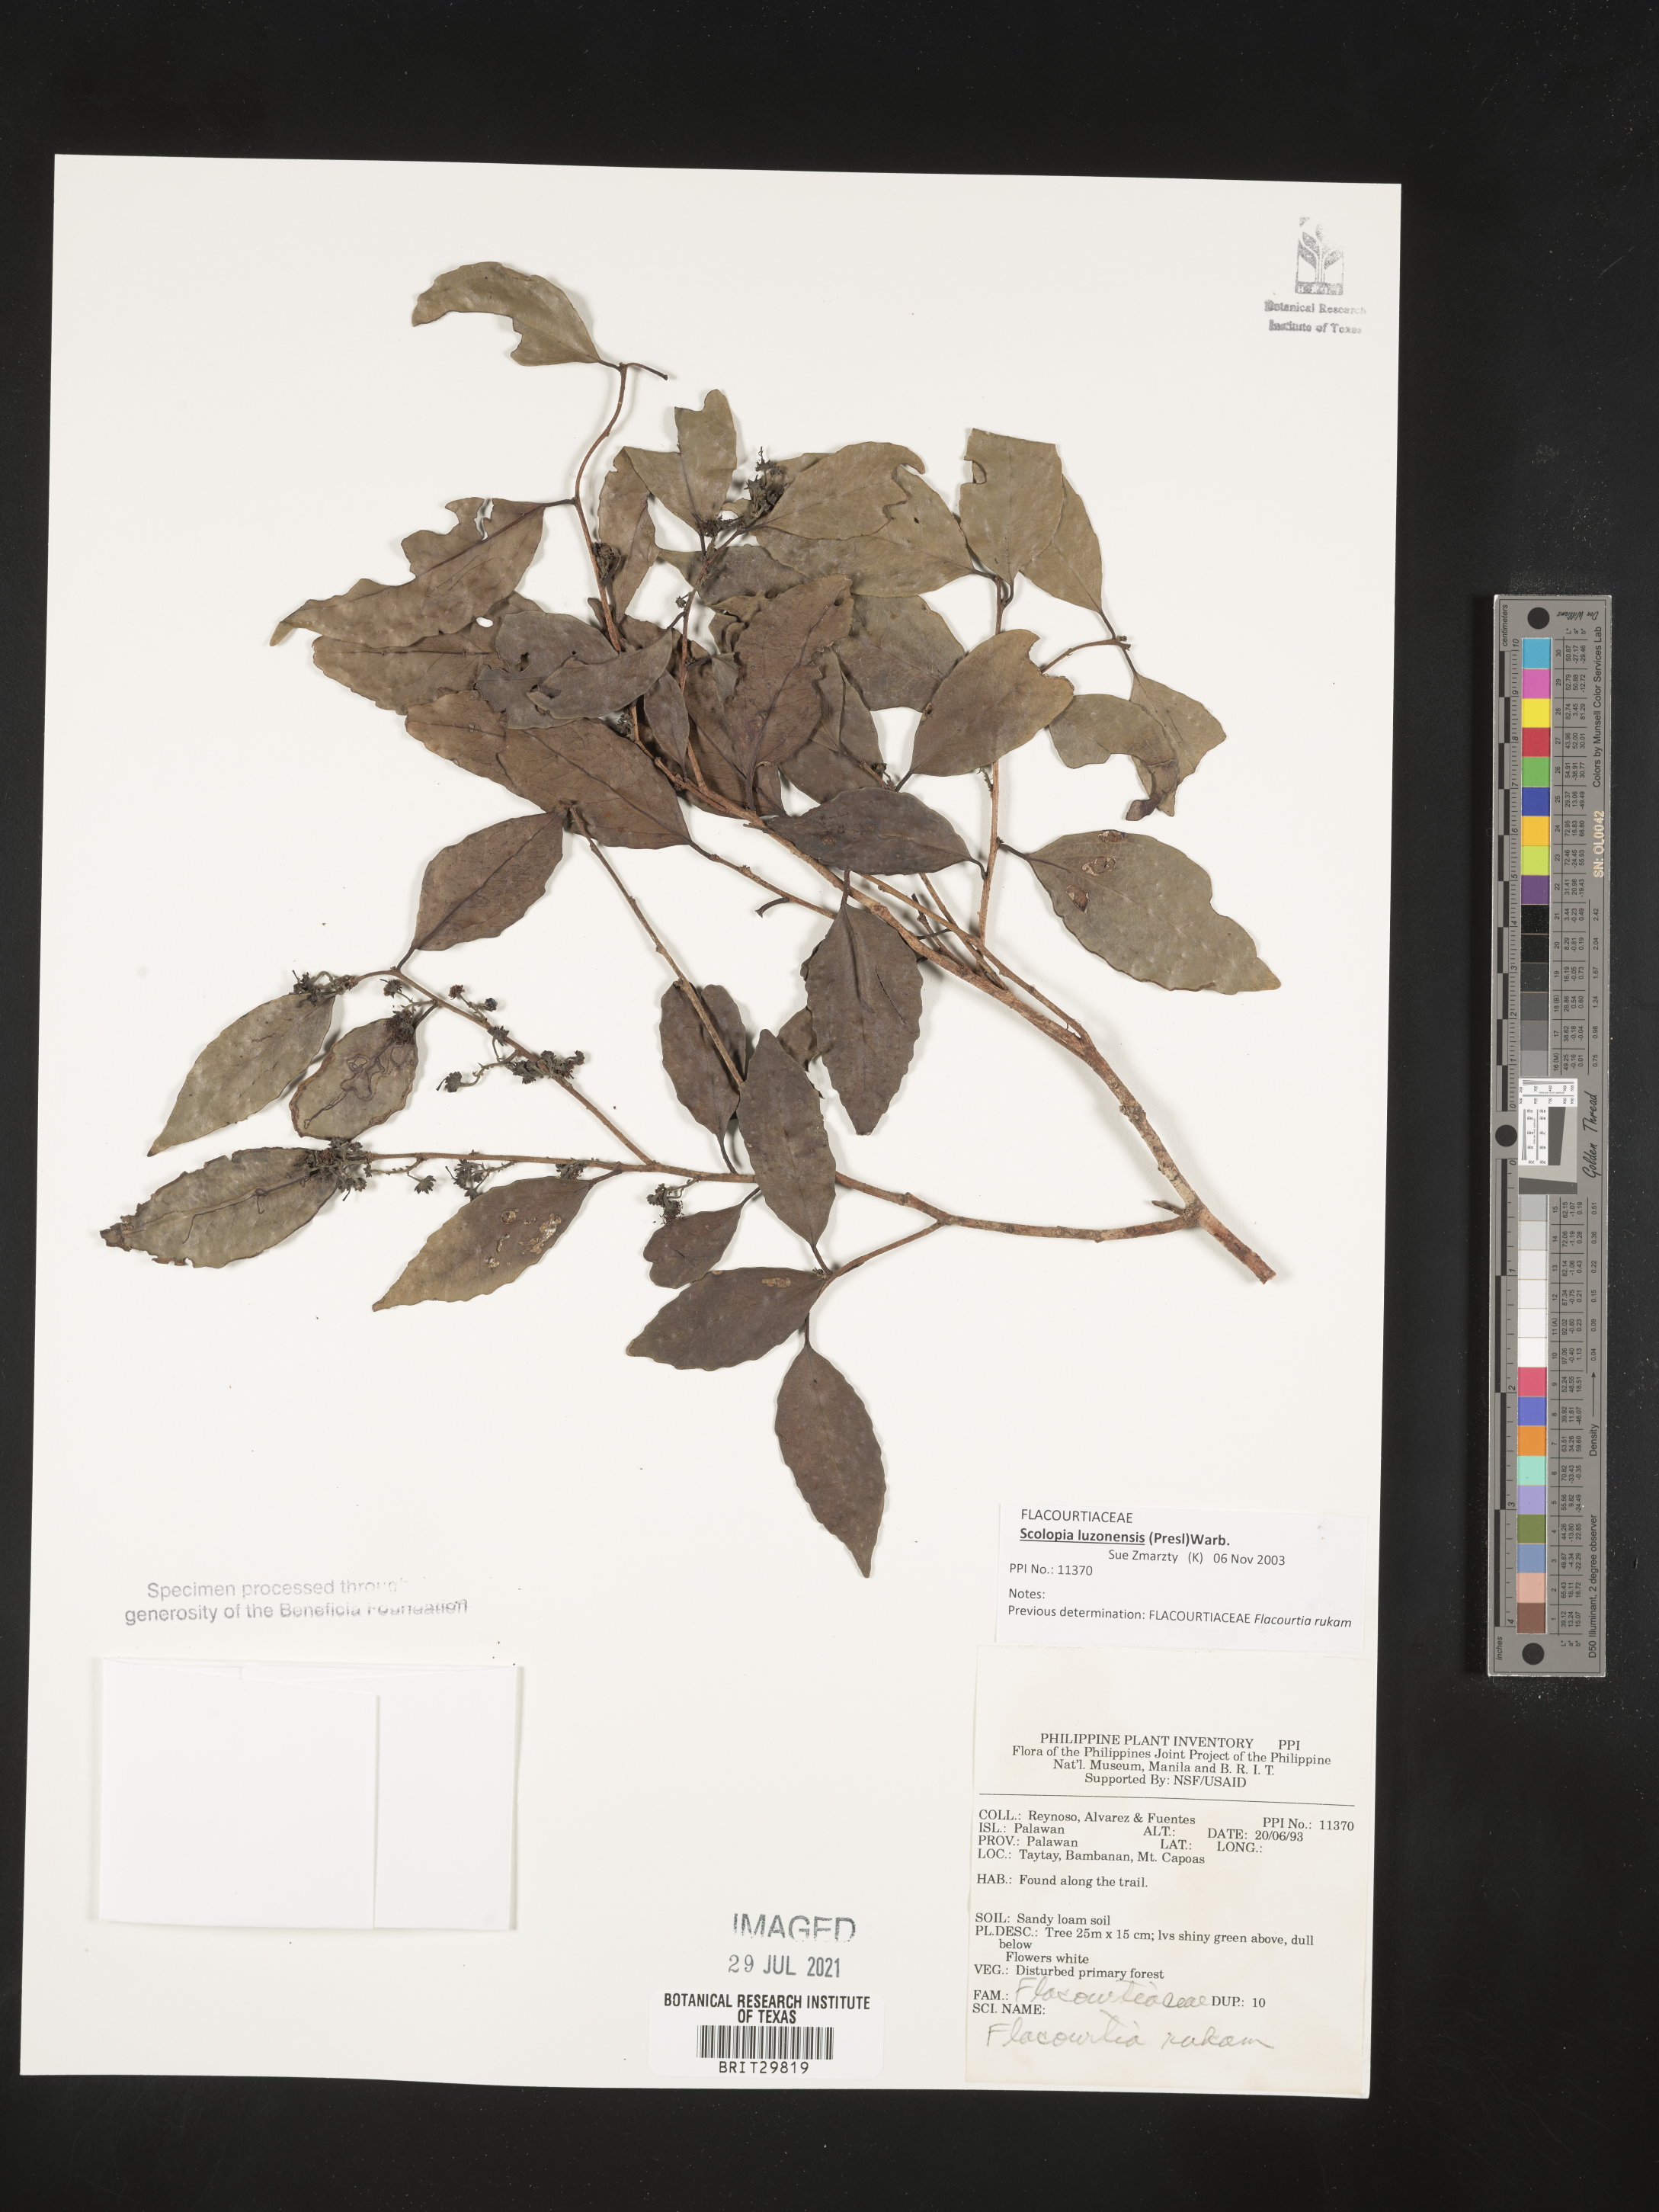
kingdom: Plantae
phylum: Tracheophyta
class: Magnoliopsida
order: Malpighiales
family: Salicaceae
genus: Flacourtia
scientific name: Flacourtia rukam
